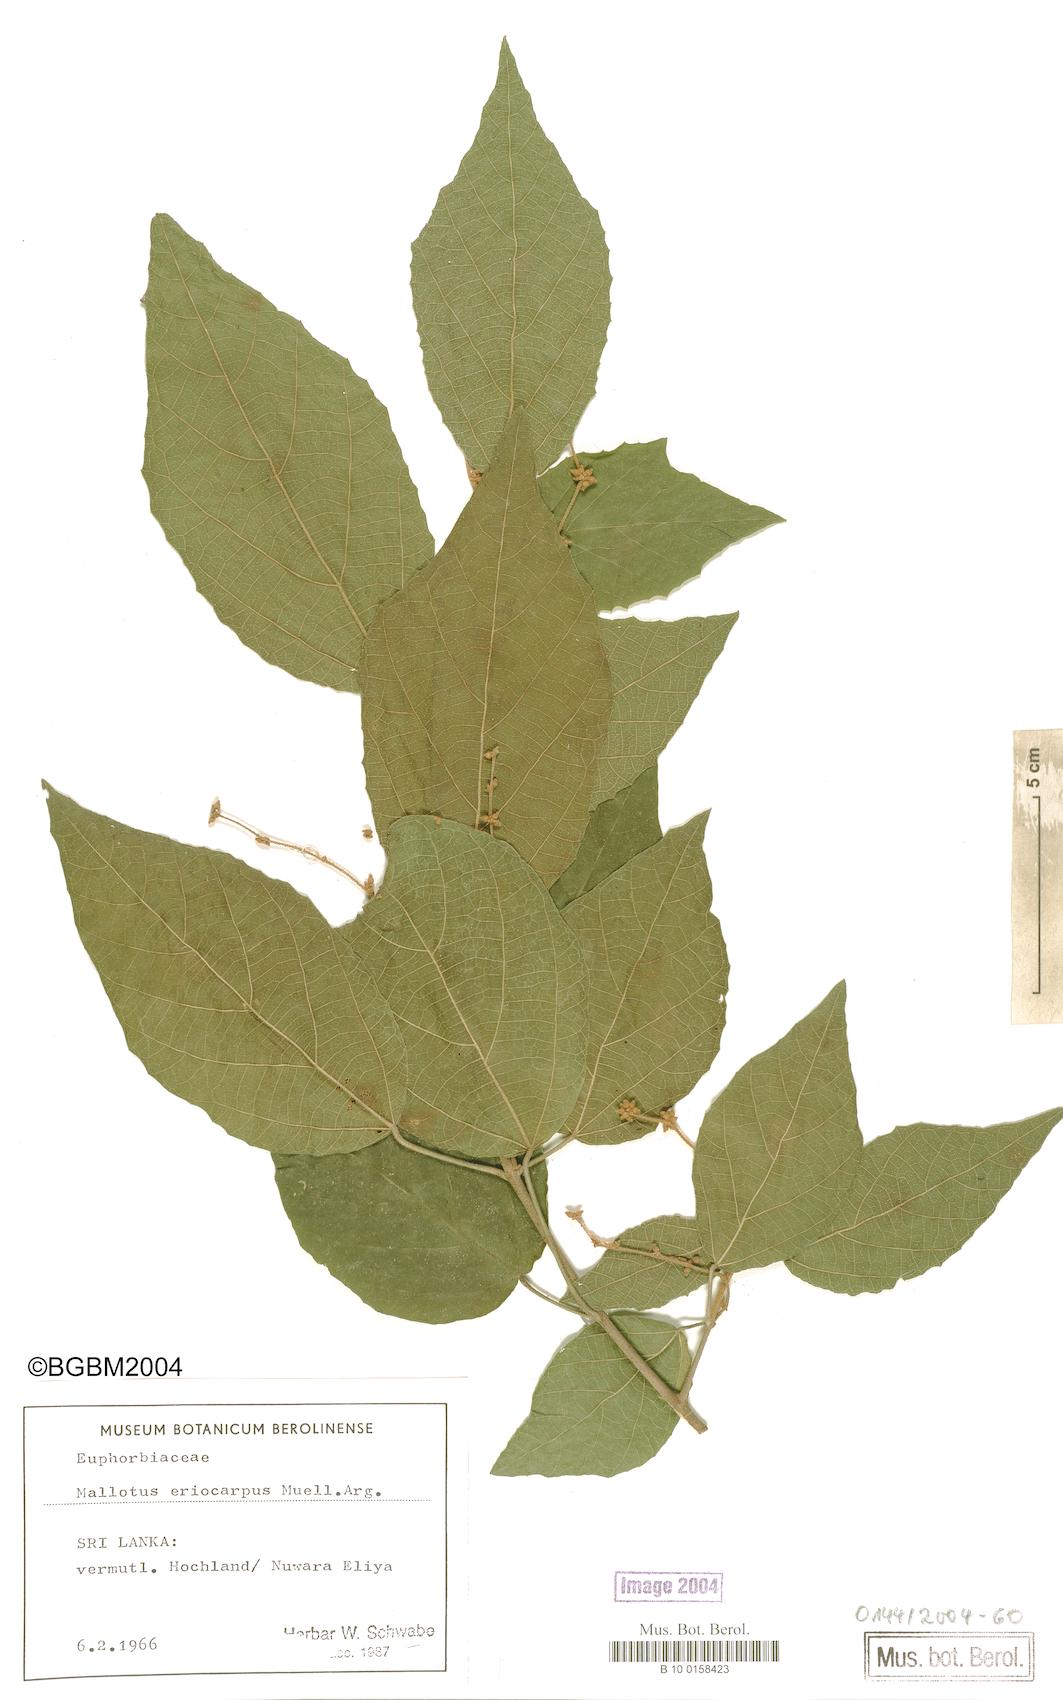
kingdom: Plantae
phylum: Tracheophyta
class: Magnoliopsida
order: Malpighiales
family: Euphorbiaceae
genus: Mallotus
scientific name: Mallotus eriocarpus
